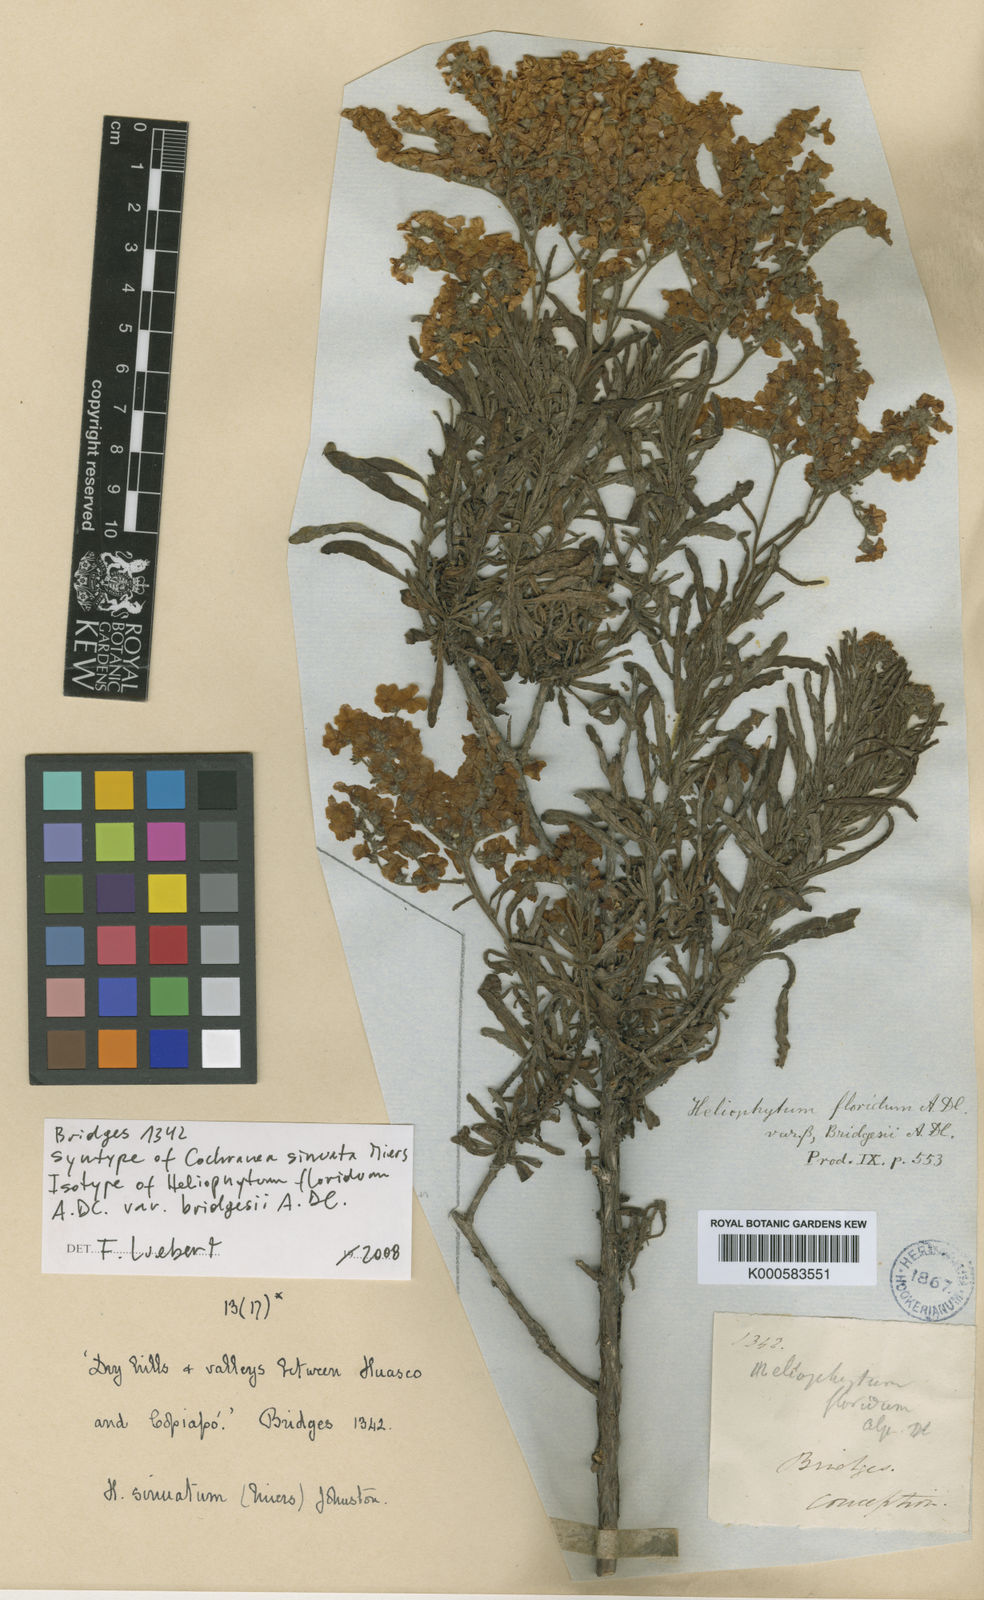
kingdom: Plantae
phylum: Tracheophyta
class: Magnoliopsida
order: Boraginales
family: Heliotropiaceae
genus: Heliotropium
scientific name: Heliotropium
